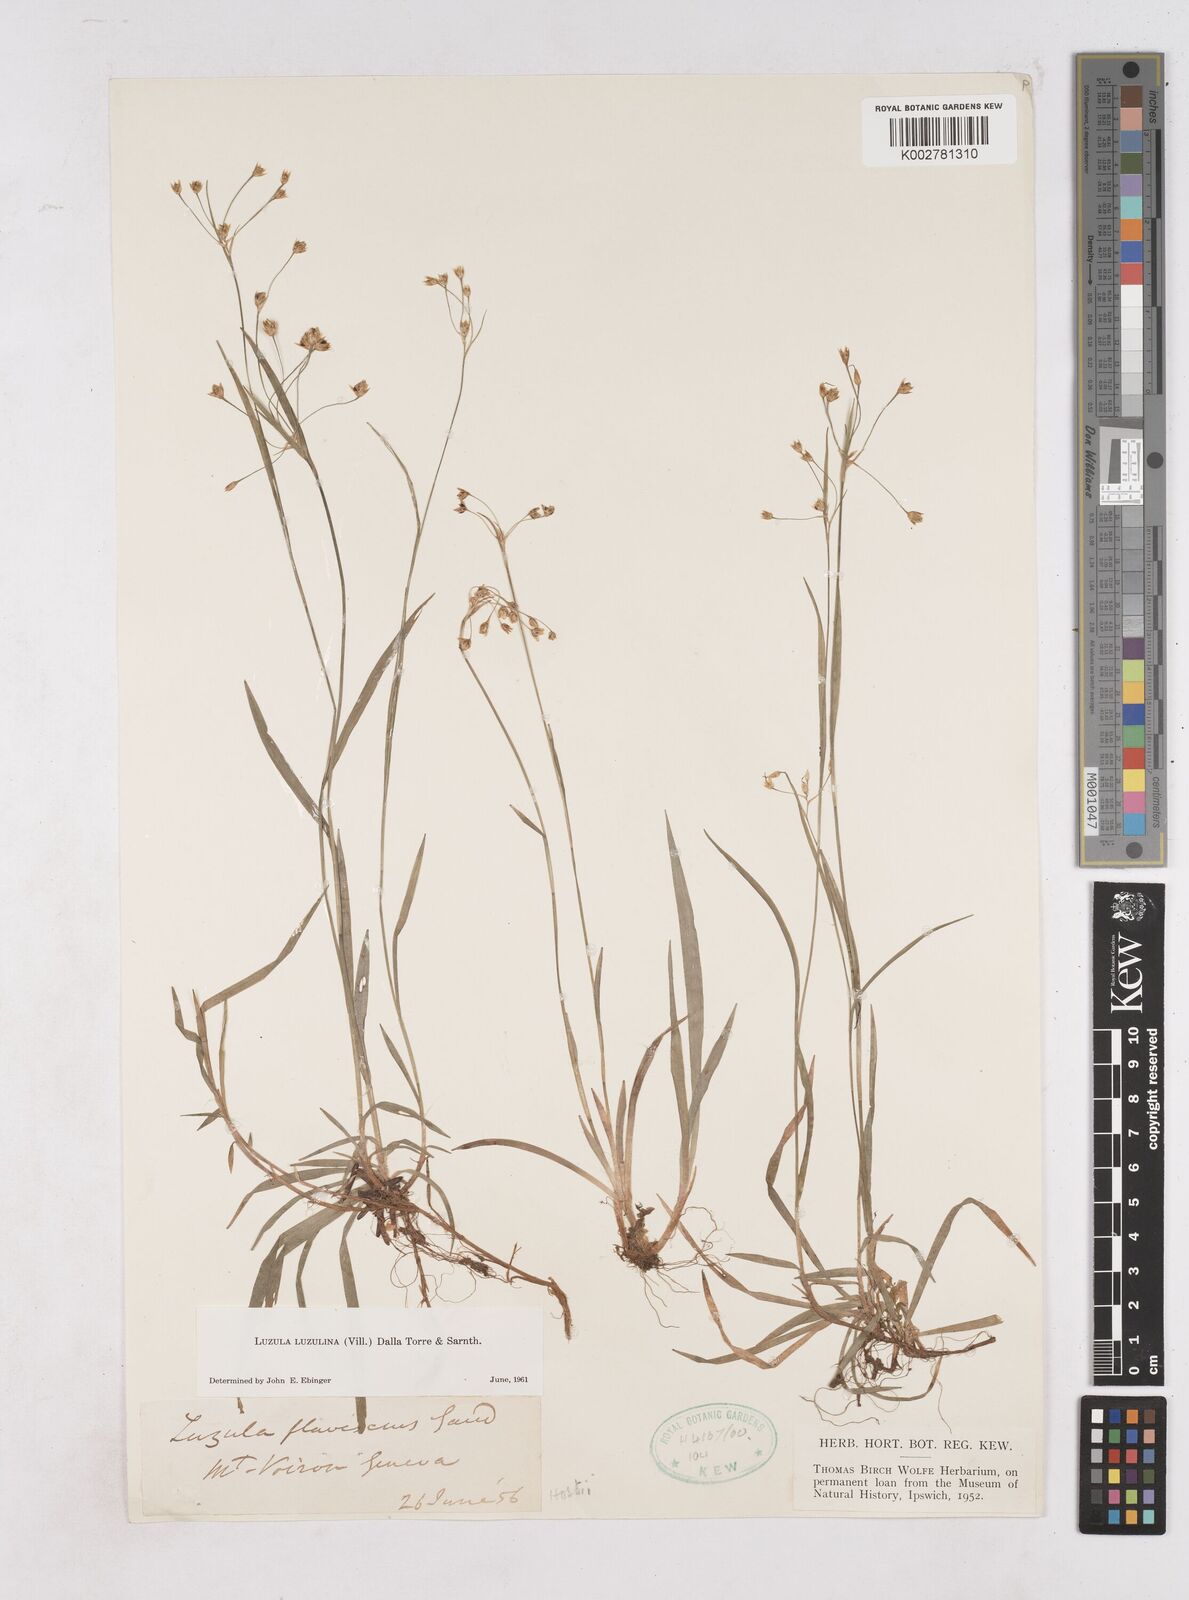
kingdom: Plantae
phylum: Tracheophyta
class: Liliopsida
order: Poales
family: Juncaceae
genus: Luzula
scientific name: Luzula luzulina
